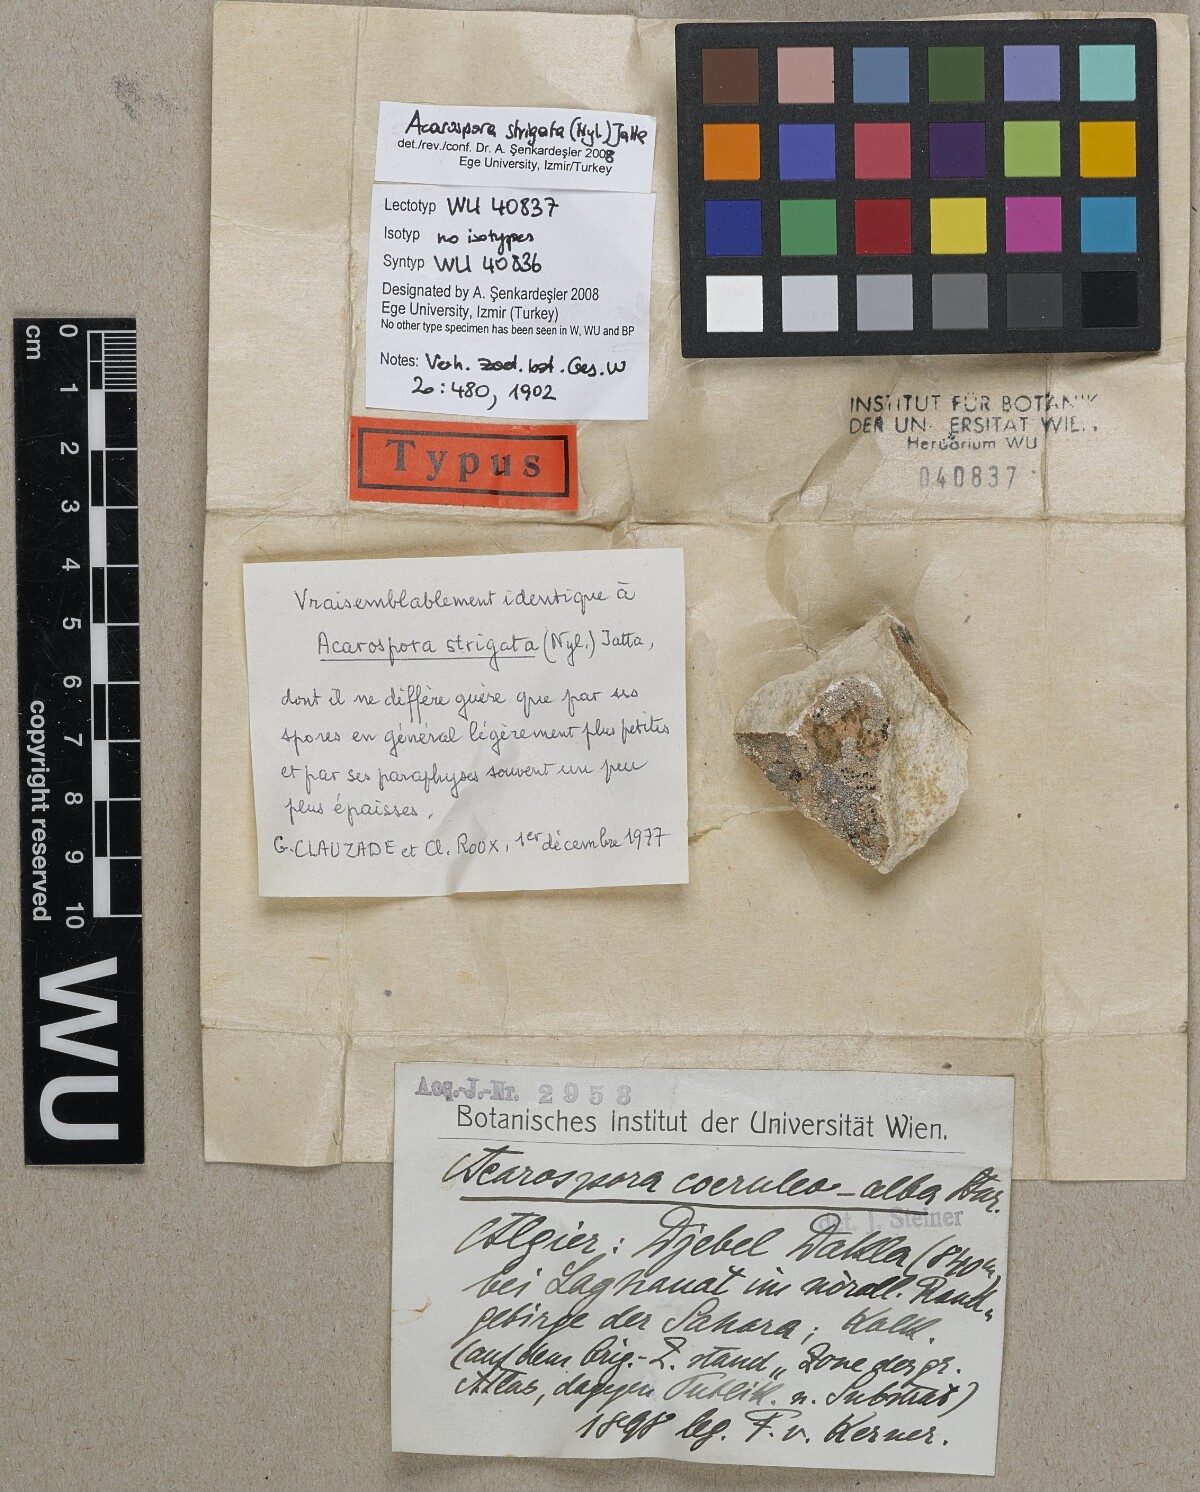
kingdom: Fungi
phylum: Ascomycota
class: Lecanoromycetes
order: Acarosporales
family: Acarosporaceae
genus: Acarospora
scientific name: Acarospora
